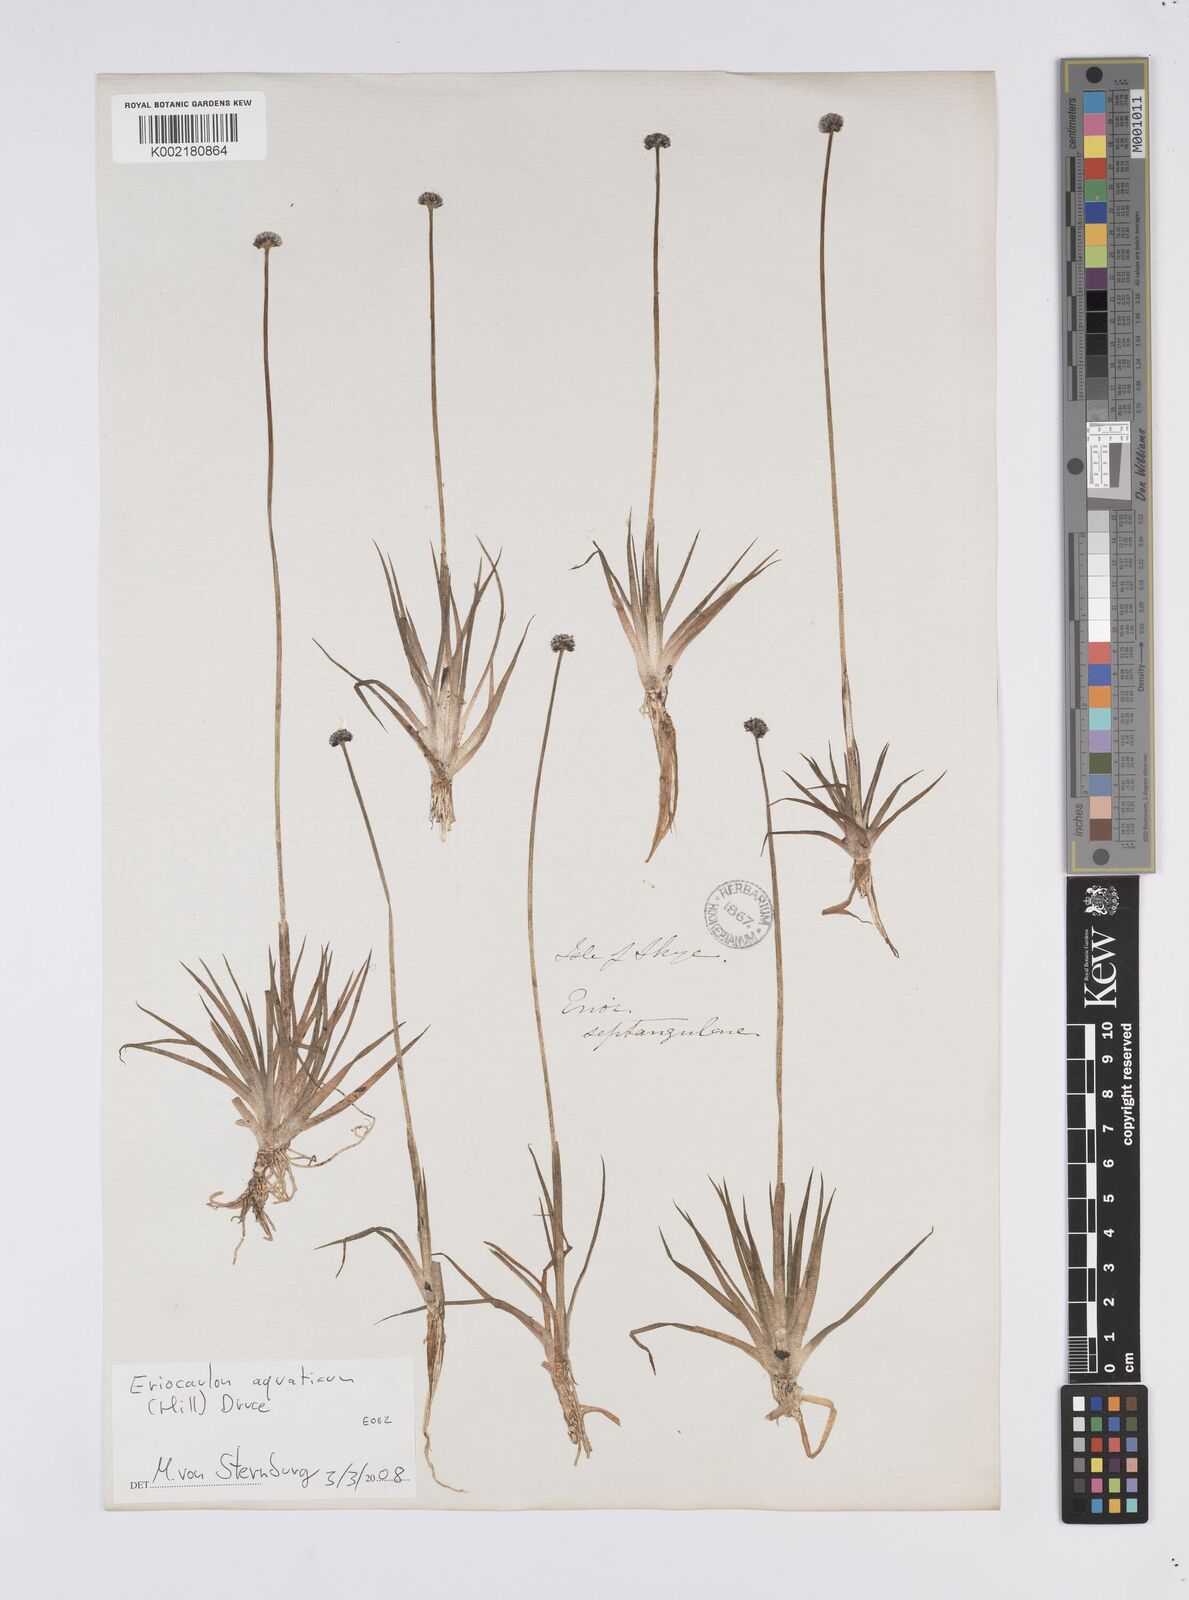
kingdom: Plantae
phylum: Tracheophyta
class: Liliopsida
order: Poales
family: Eriocaulaceae
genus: Eriocaulon
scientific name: Eriocaulon aquaticum
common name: Pipewort
